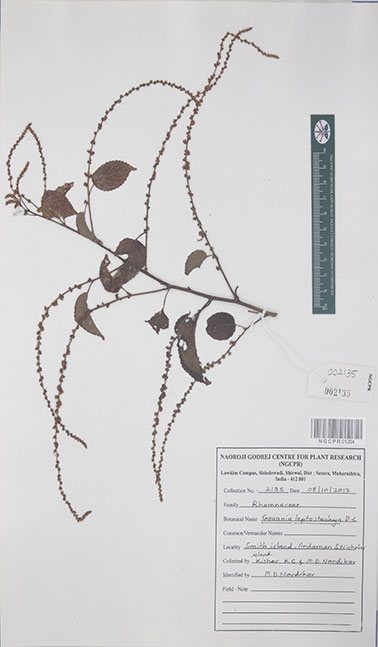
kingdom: Plantae
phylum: Tracheophyta
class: Magnoliopsida
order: Rosales
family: Rhamnaceae
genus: Gouania
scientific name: Gouania leptostachya
